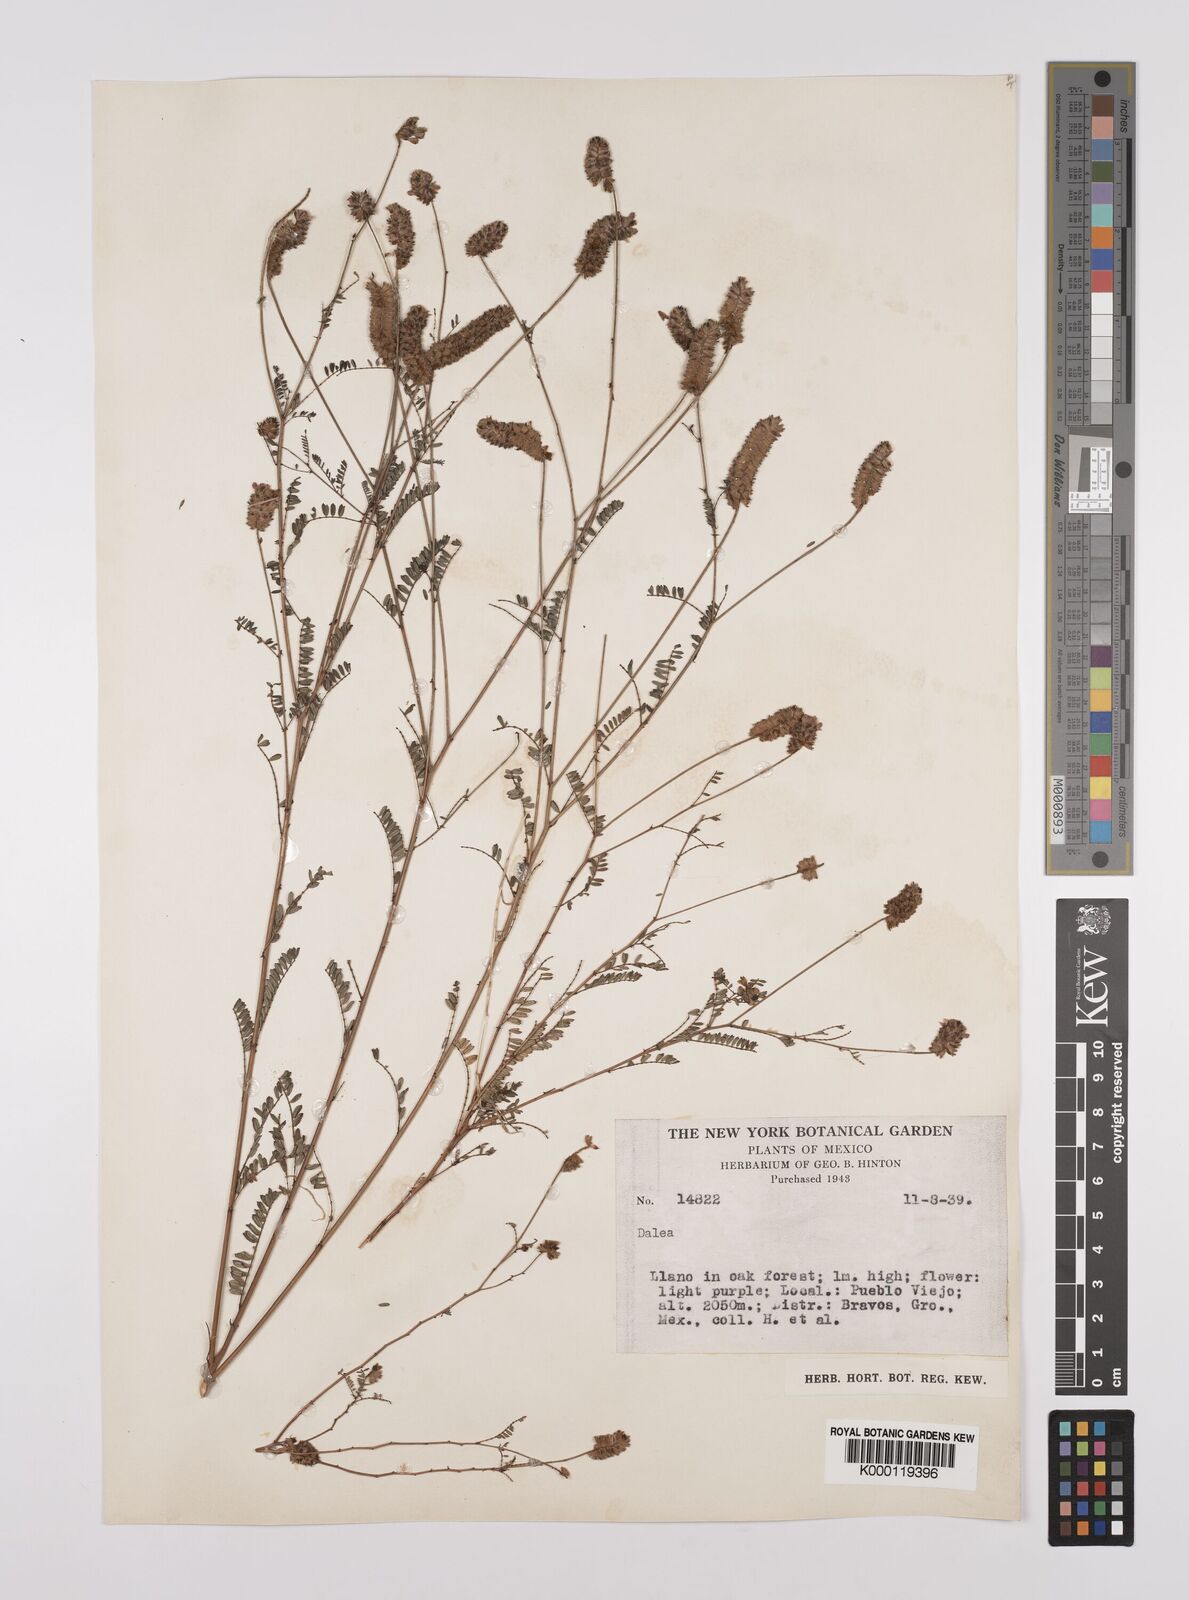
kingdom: Plantae
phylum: Tracheophyta
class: Magnoliopsida
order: Fabales
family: Fabaceae
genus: Dalea
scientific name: Dalea
